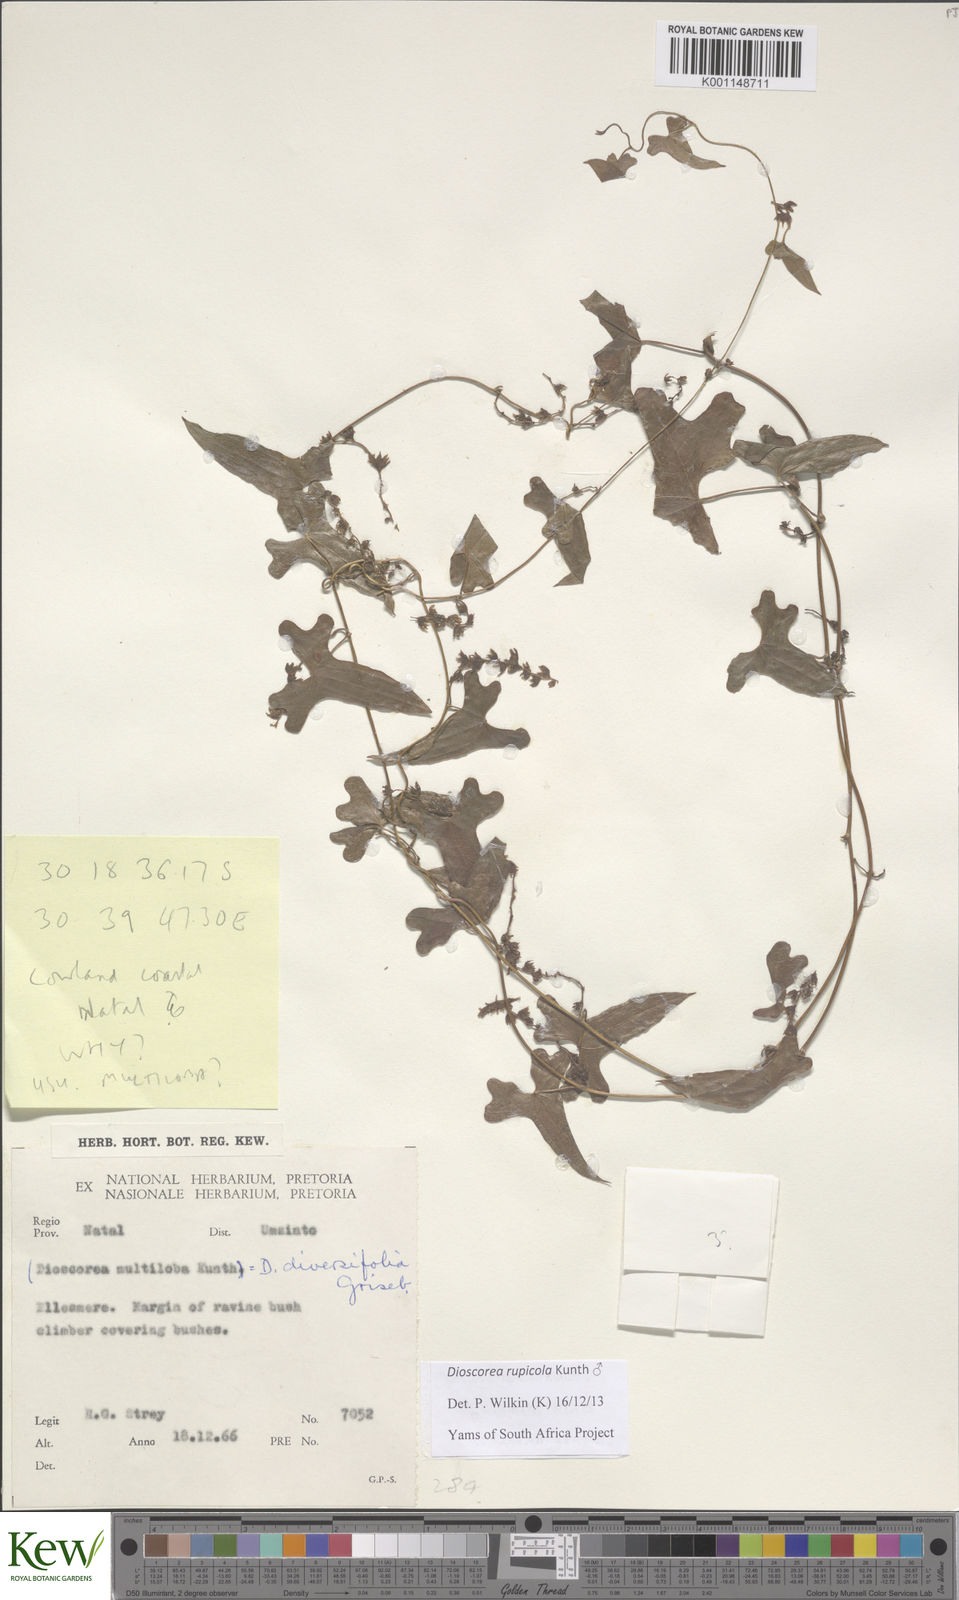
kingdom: Plantae
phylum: Tracheophyta
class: Liliopsida
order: Dioscoreales
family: Dioscoreaceae
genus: Dioscorea
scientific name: Dioscorea rupicola
